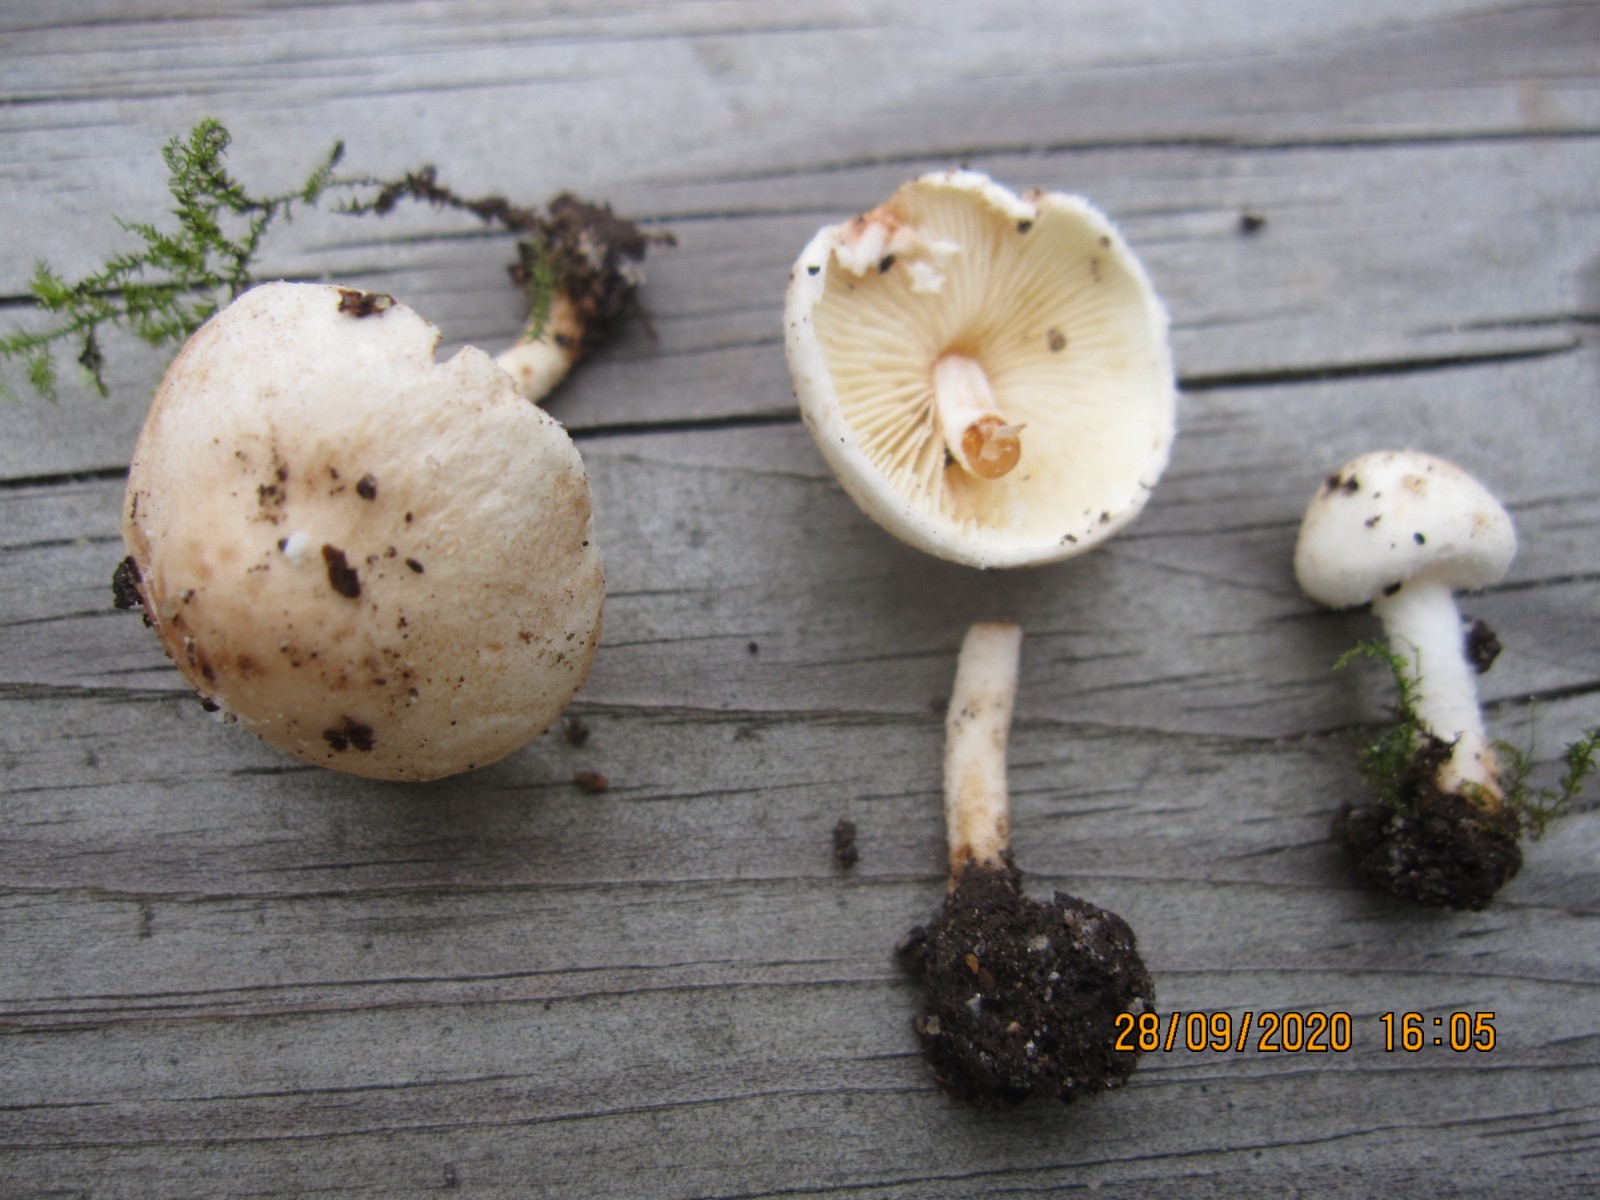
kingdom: Fungi
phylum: Basidiomycota
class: Agaricomycetes
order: Agaricales
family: Agaricaceae
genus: Cystolepiota
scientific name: Cystolepiota seminuda
